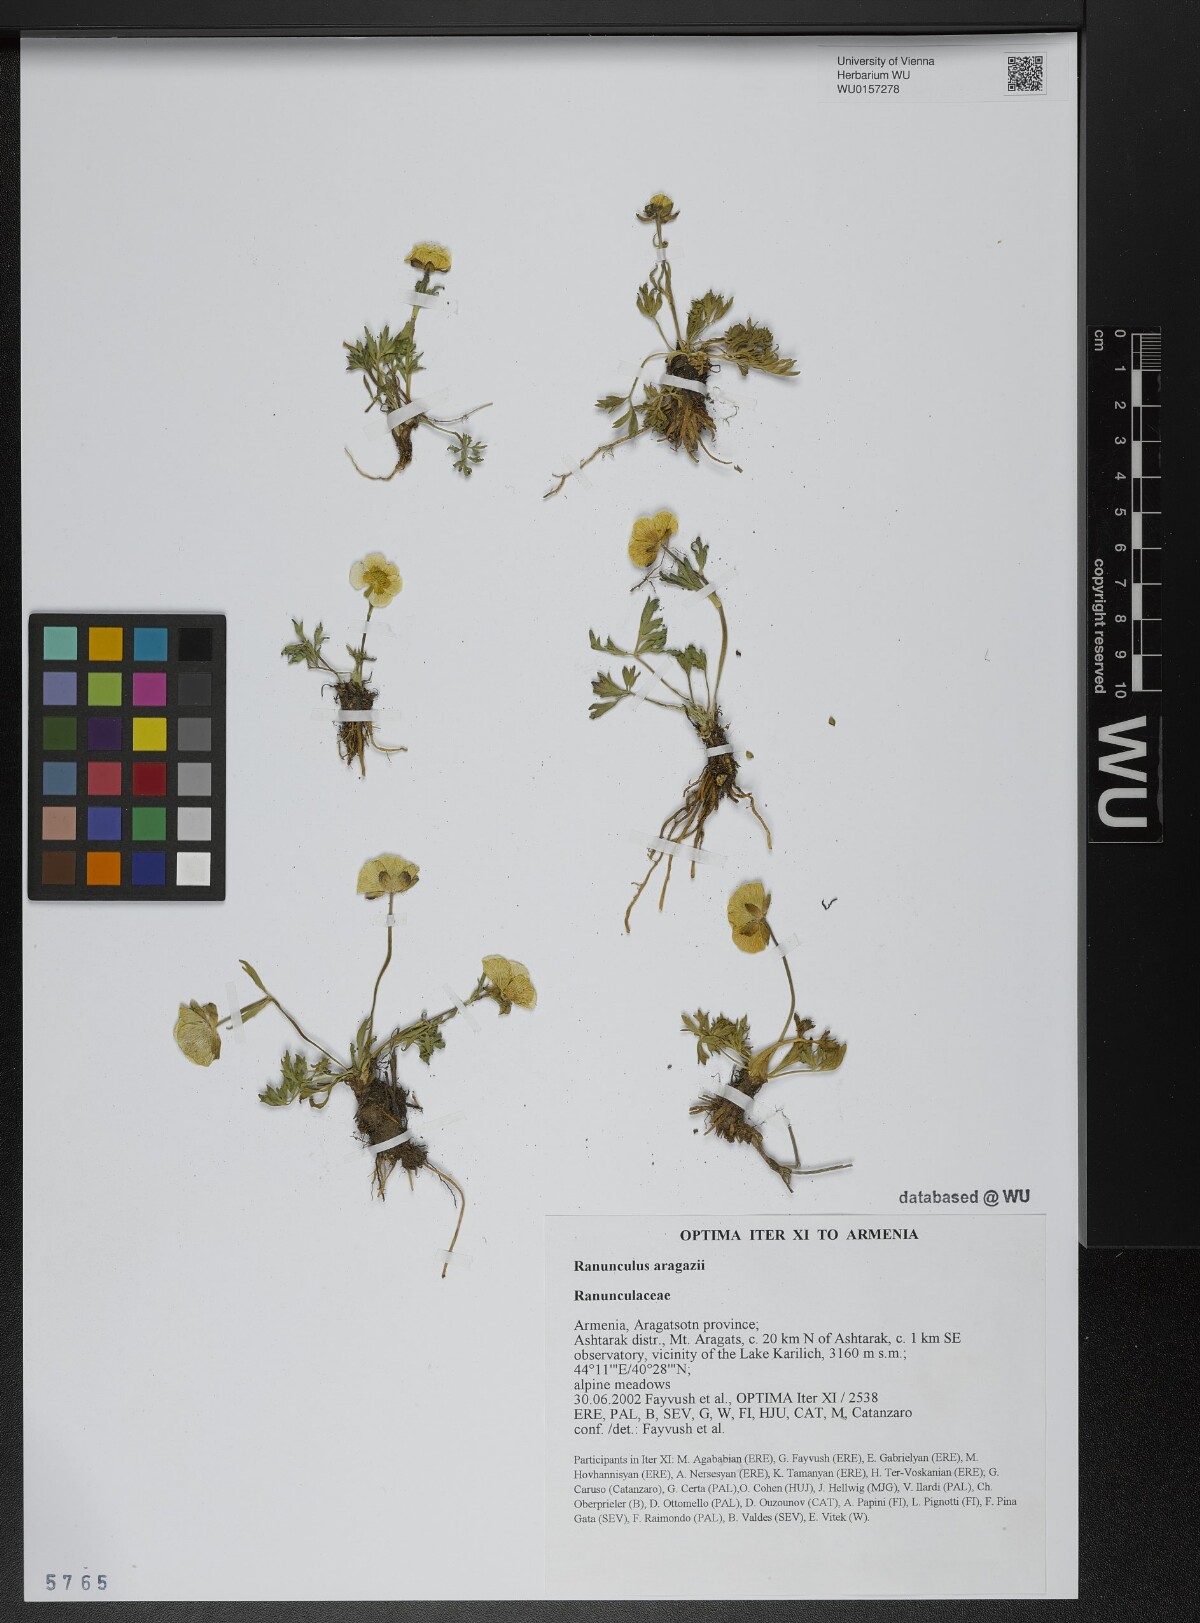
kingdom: Plantae
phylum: Tracheophyta
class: Magnoliopsida
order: Ranunculales
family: Ranunculaceae
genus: Ranunculus
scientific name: Ranunculus dissectus
